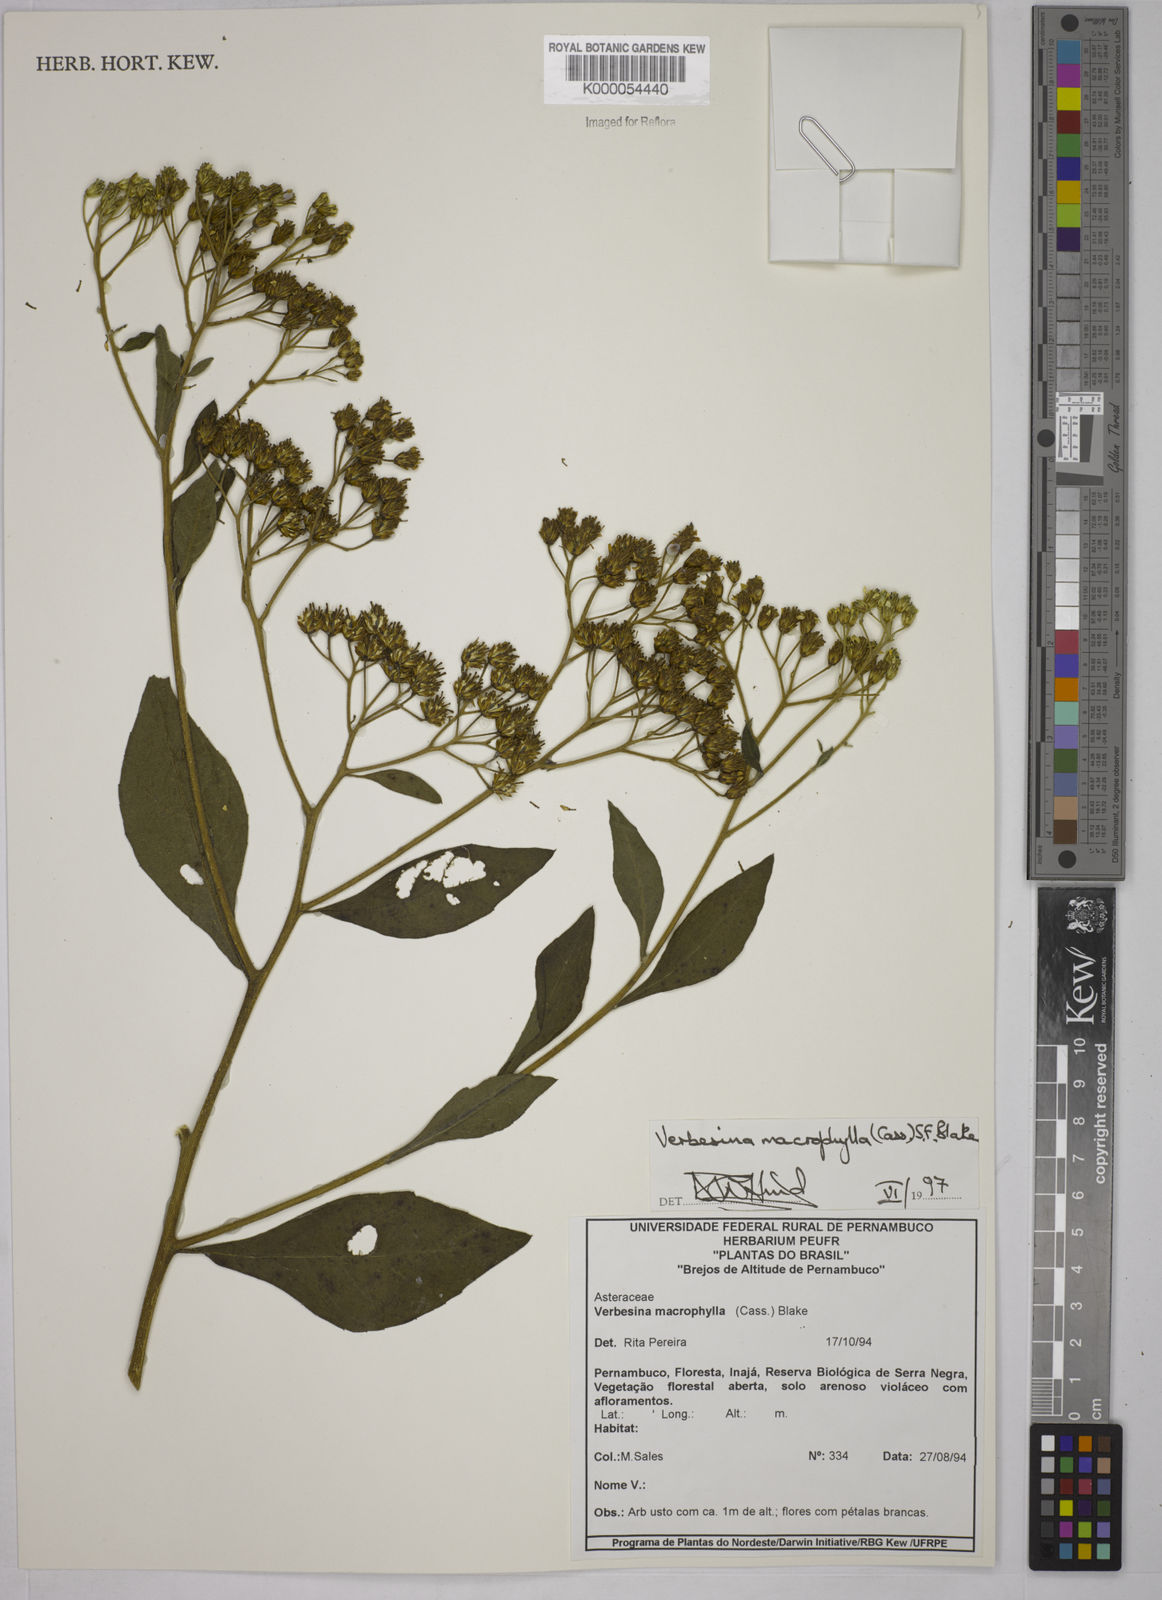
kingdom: Plantae
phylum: Tracheophyta
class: Magnoliopsida
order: Asterales
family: Asteraceae
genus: Verbesina
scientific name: Verbesina macrophylla
